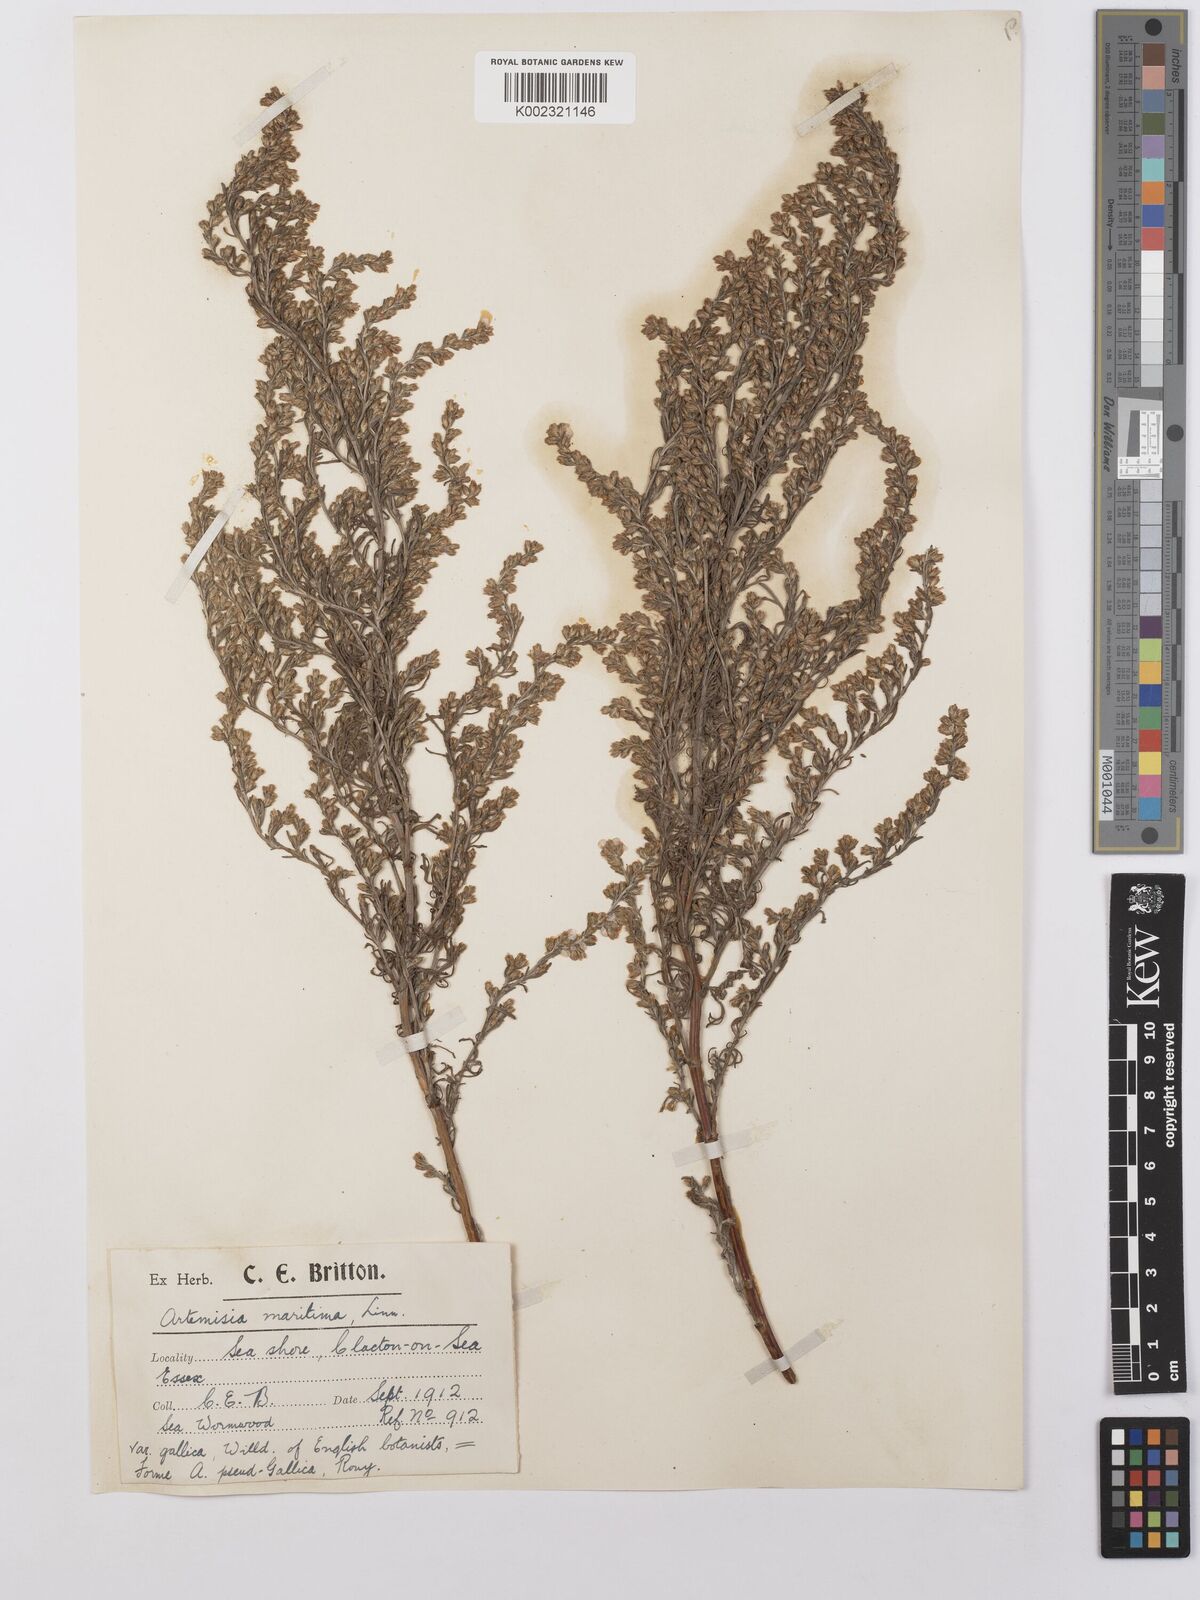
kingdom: Plantae
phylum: Tracheophyta
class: Magnoliopsida
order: Asterales
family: Asteraceae
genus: Artemisia
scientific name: Artemisia maritima
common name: Wormseed
